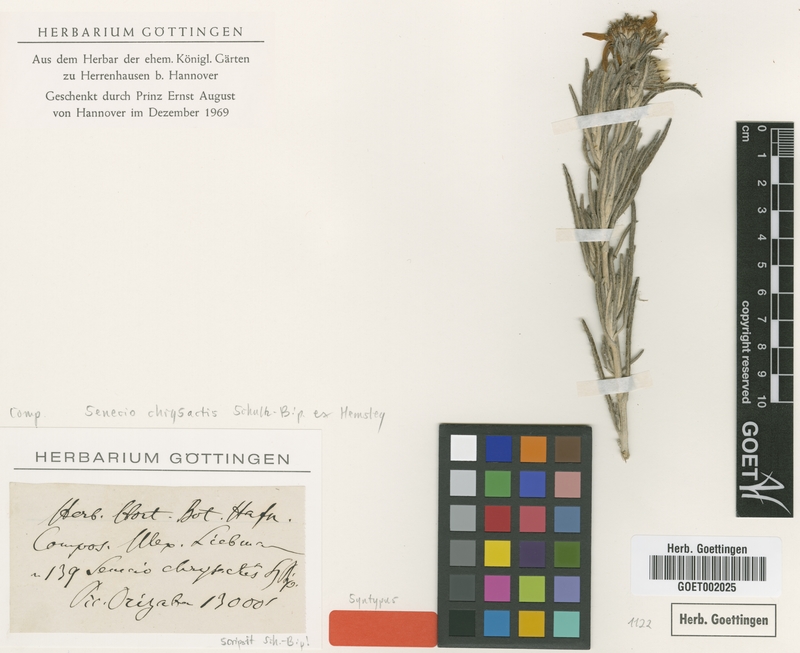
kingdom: Plantae
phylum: Tracheophyta
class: Magnoliopsida
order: Asterales
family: Asteraceae
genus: Senecio
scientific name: Senecio chrysactis
